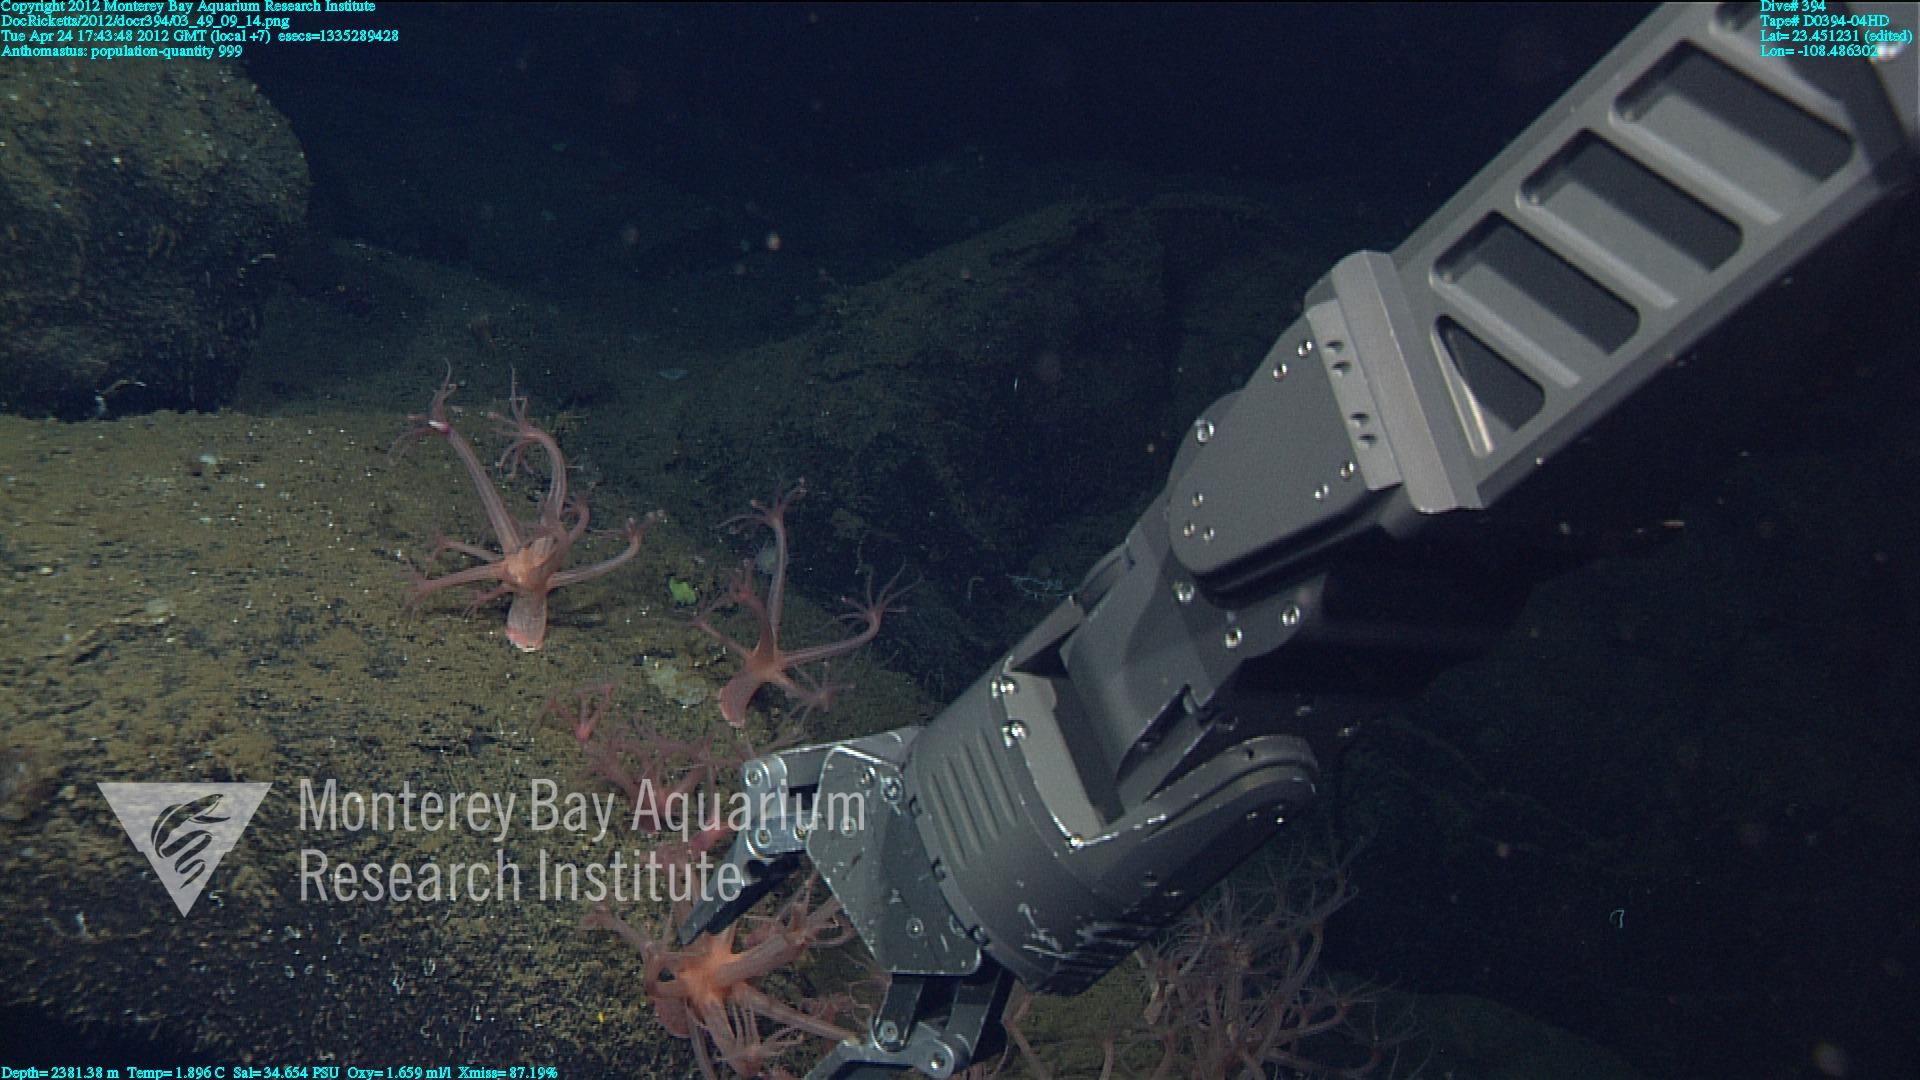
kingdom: Animalia
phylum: Cnidaria
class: Anthozoa
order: Scleralcyonacea
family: Coralliidae
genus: Heteropolypus
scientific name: Heteropolypus
